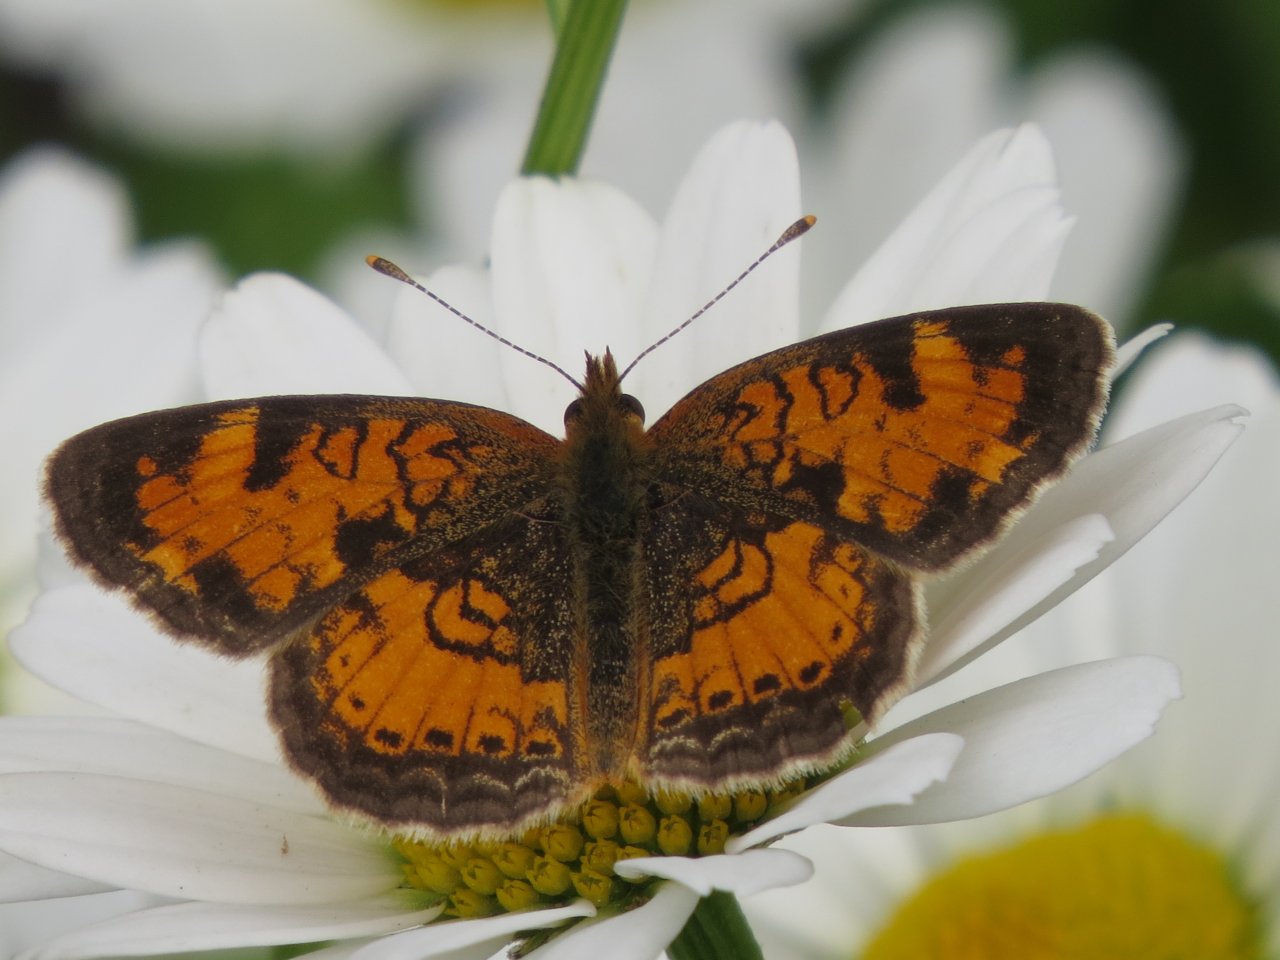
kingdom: Animalia
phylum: Arthropoda
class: Insecta
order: Lepidoptera
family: Nymphalidae
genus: Phyciodes
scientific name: Phyciodes tharos
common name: Northern Crescent
